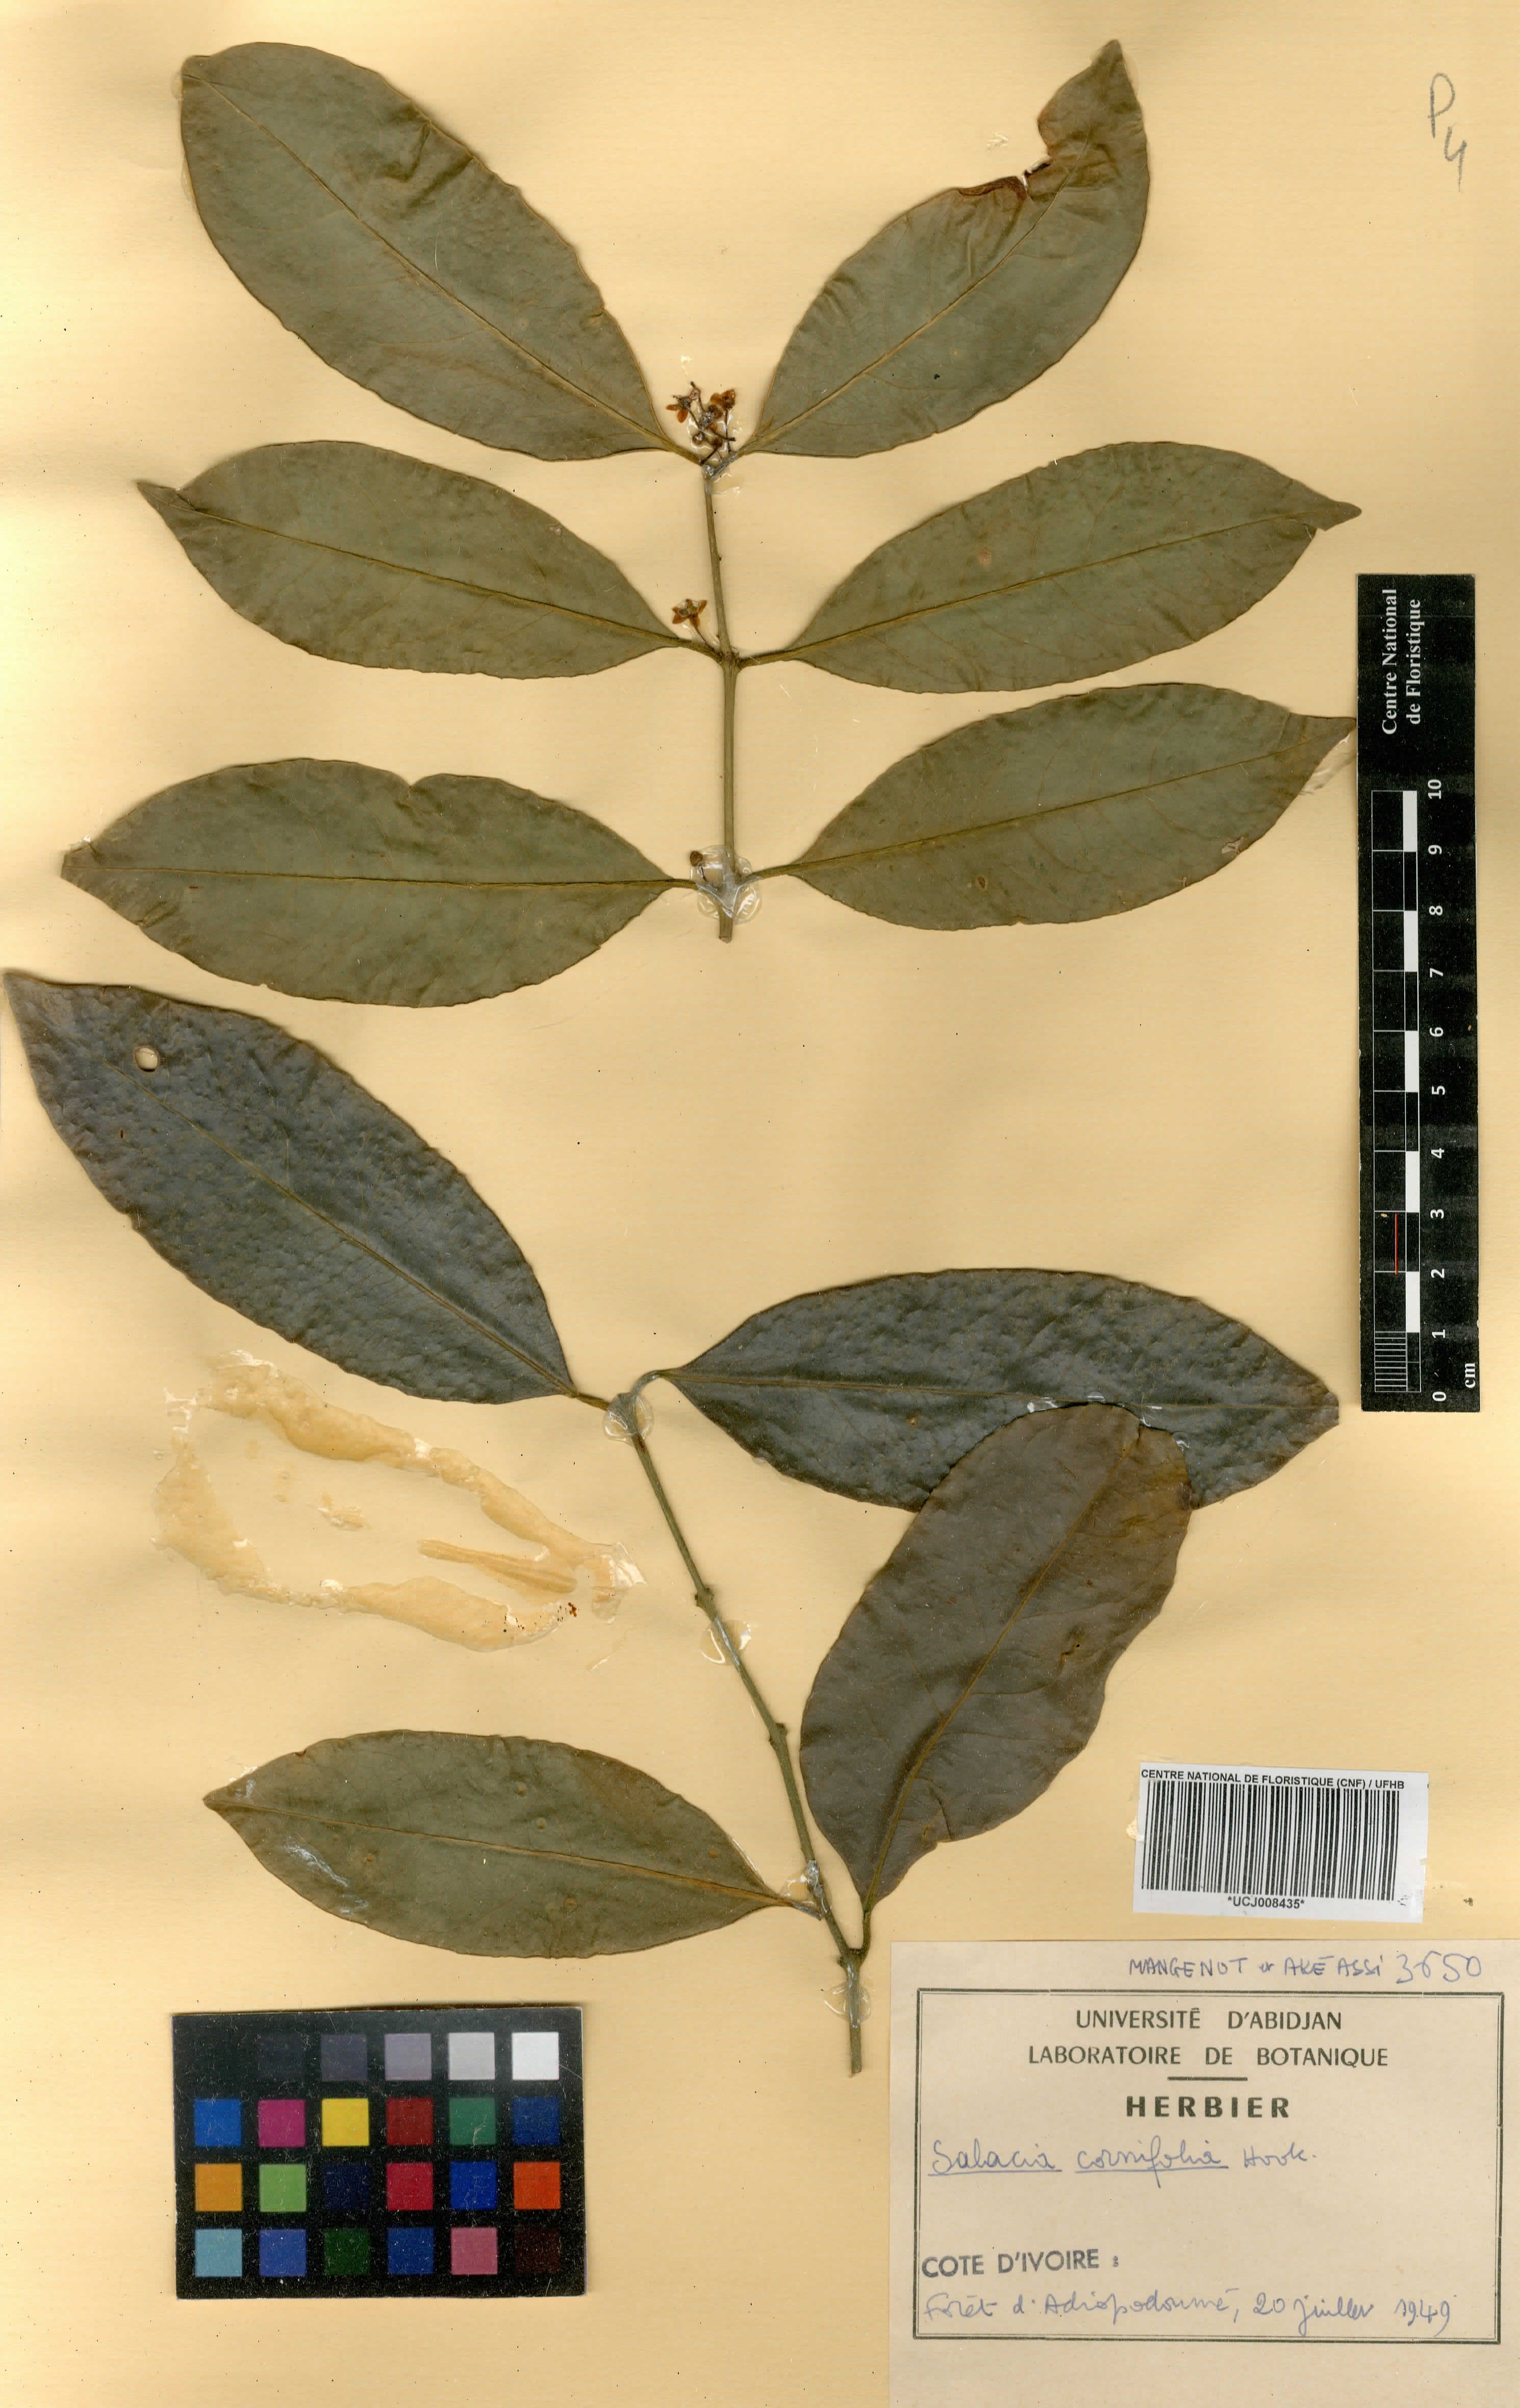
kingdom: Plantae
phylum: Tracheophyta
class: Magnoliopsida
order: Celastrales
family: Celastraceae
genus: Salacia
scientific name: Salacia cornifolia
